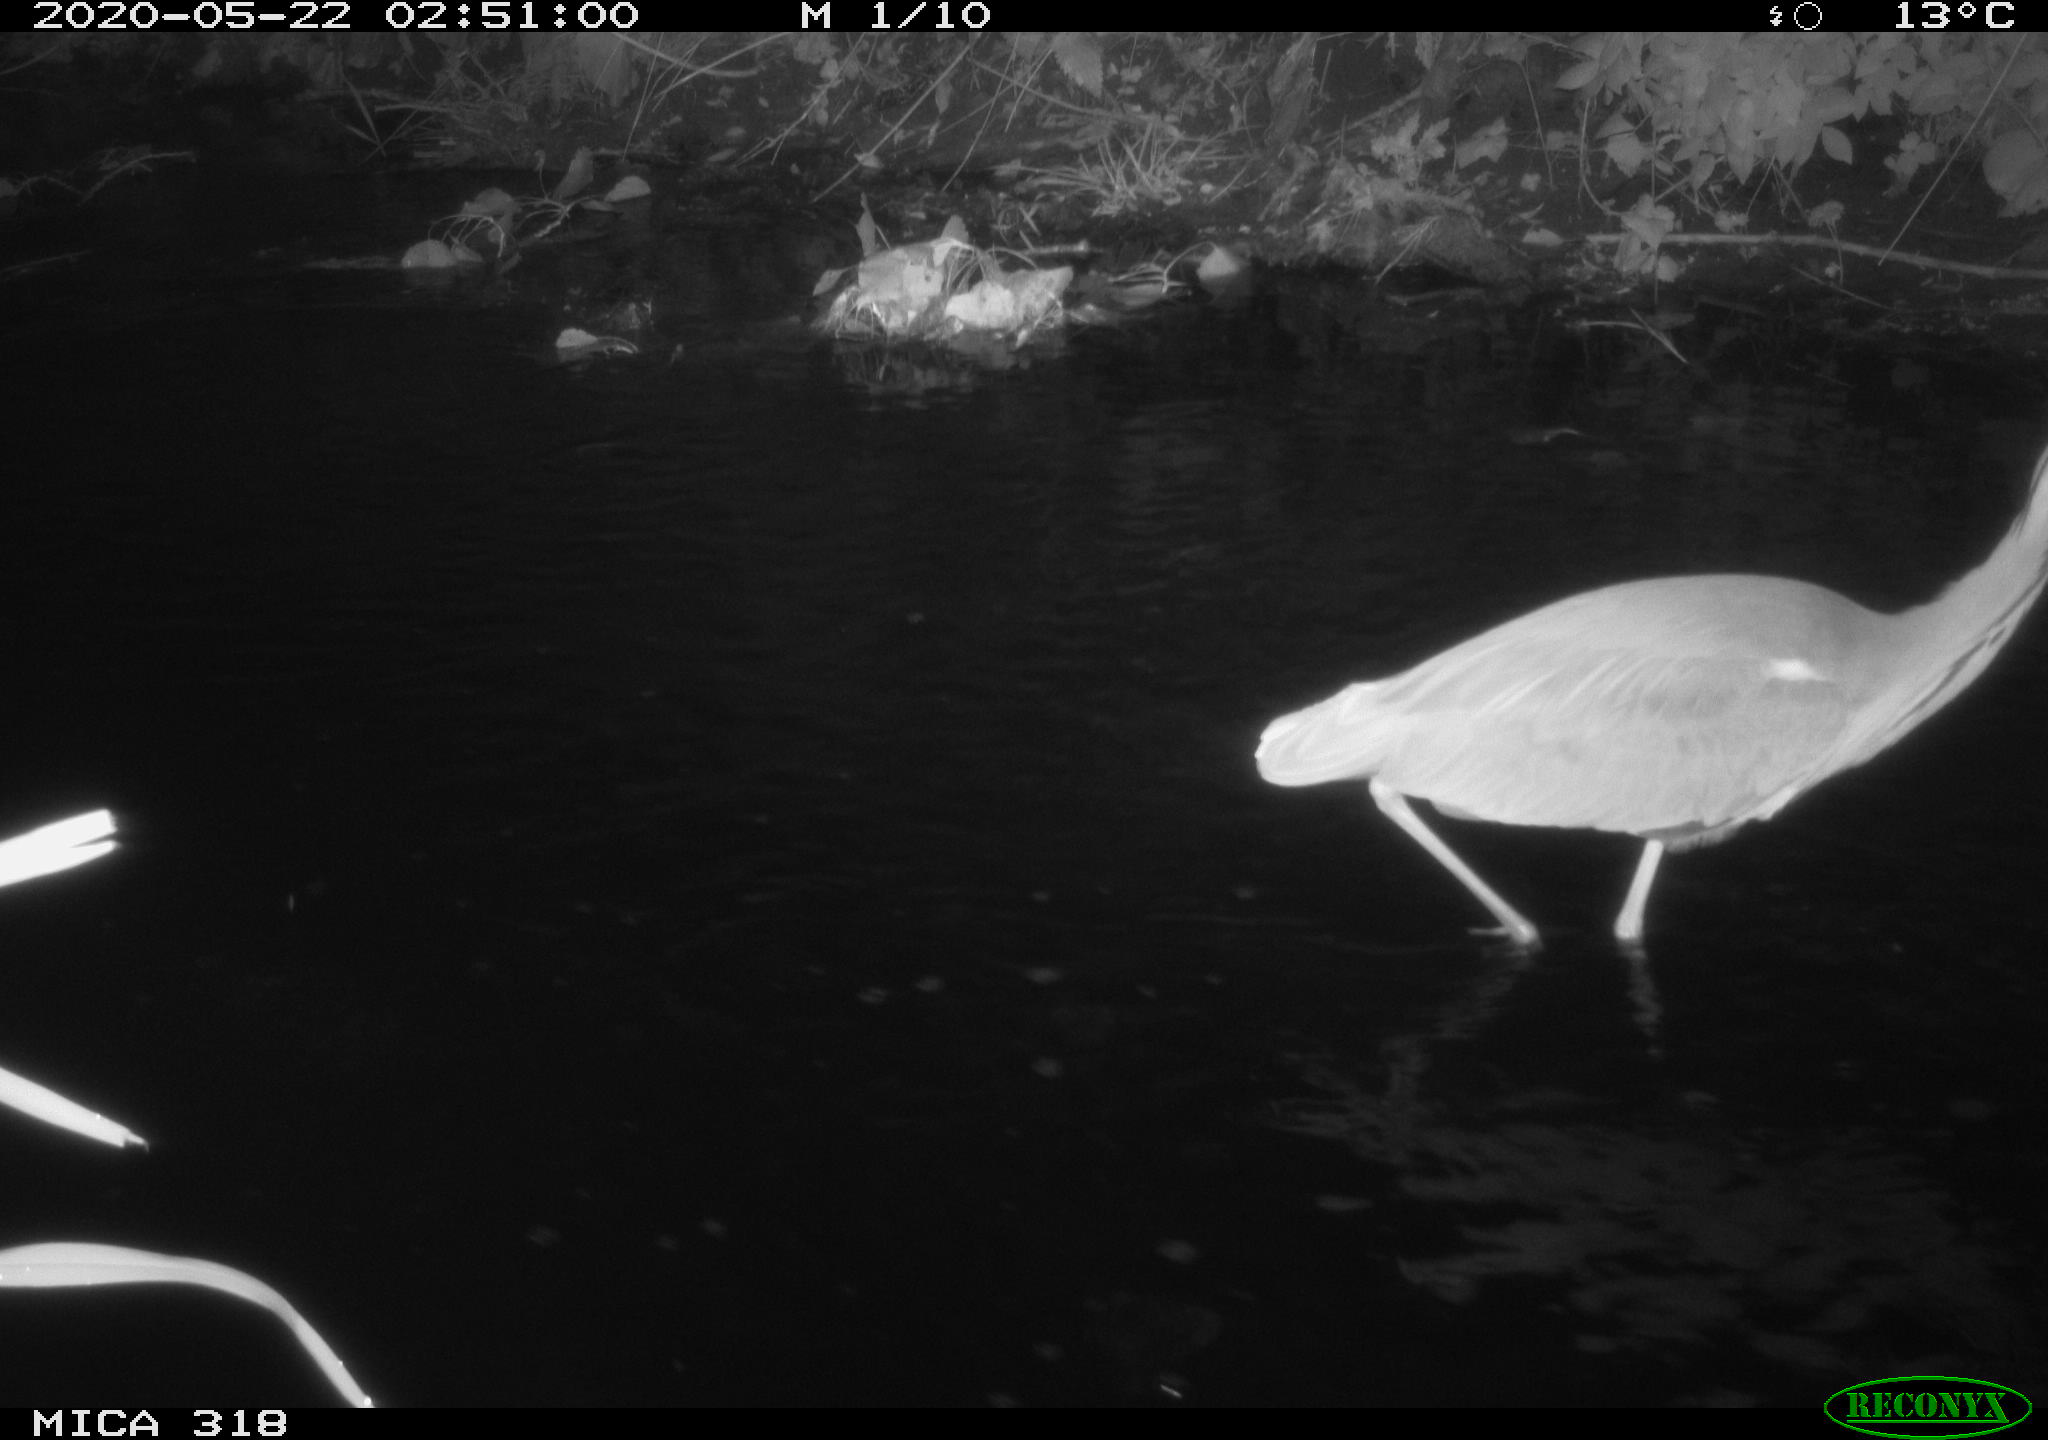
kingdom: Animalia
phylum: Chordata
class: Aves
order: Pelecaniformes
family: Ardeidae
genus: Ardea
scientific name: Ardea cinerea
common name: Grey heron
